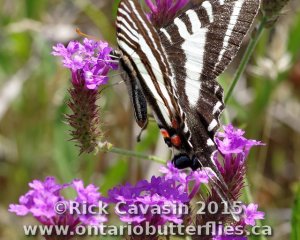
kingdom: Animalia
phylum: Arthropoda
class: Insecta
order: Lepidoptera
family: Papilionidae
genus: Protographium
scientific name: Protographium marcellus
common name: Zebra Swallowtail
